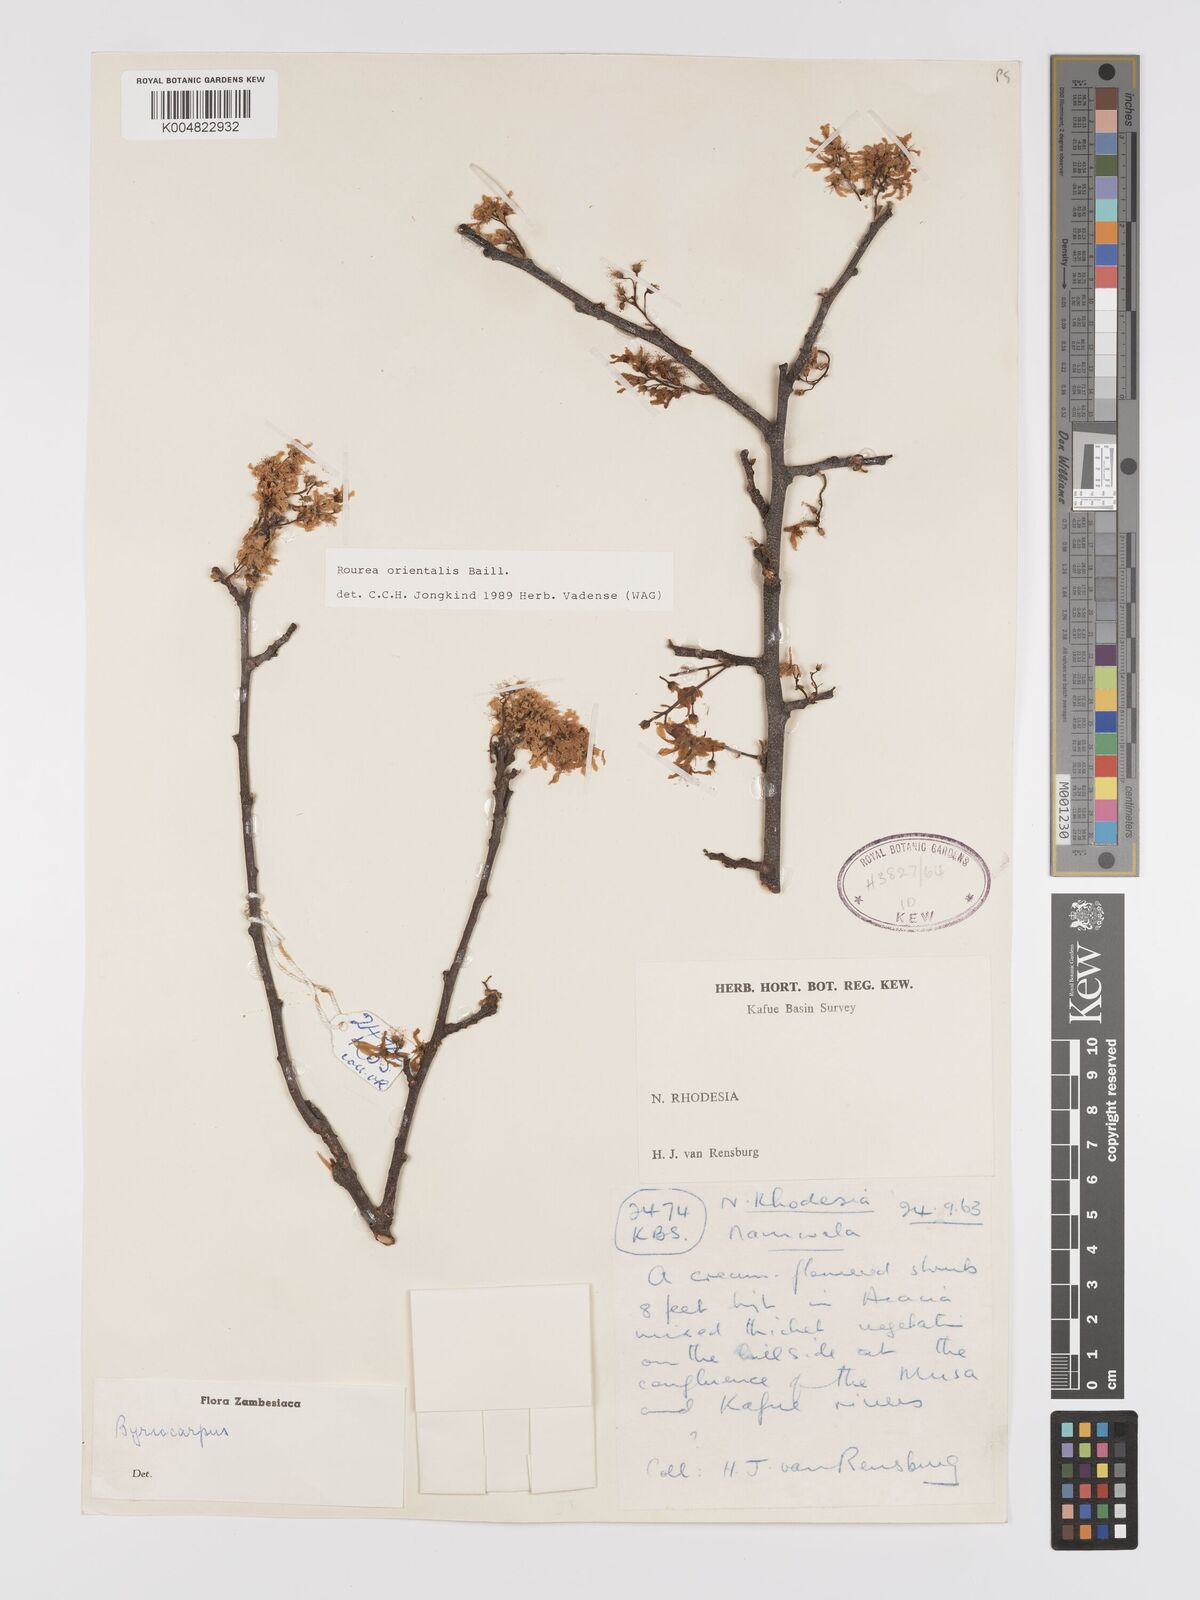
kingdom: Plantae
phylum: Tracheophyta
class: Magnoliopsida
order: Oxalidales
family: Connaraceae
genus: Rourea
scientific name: Rourea orientalis
